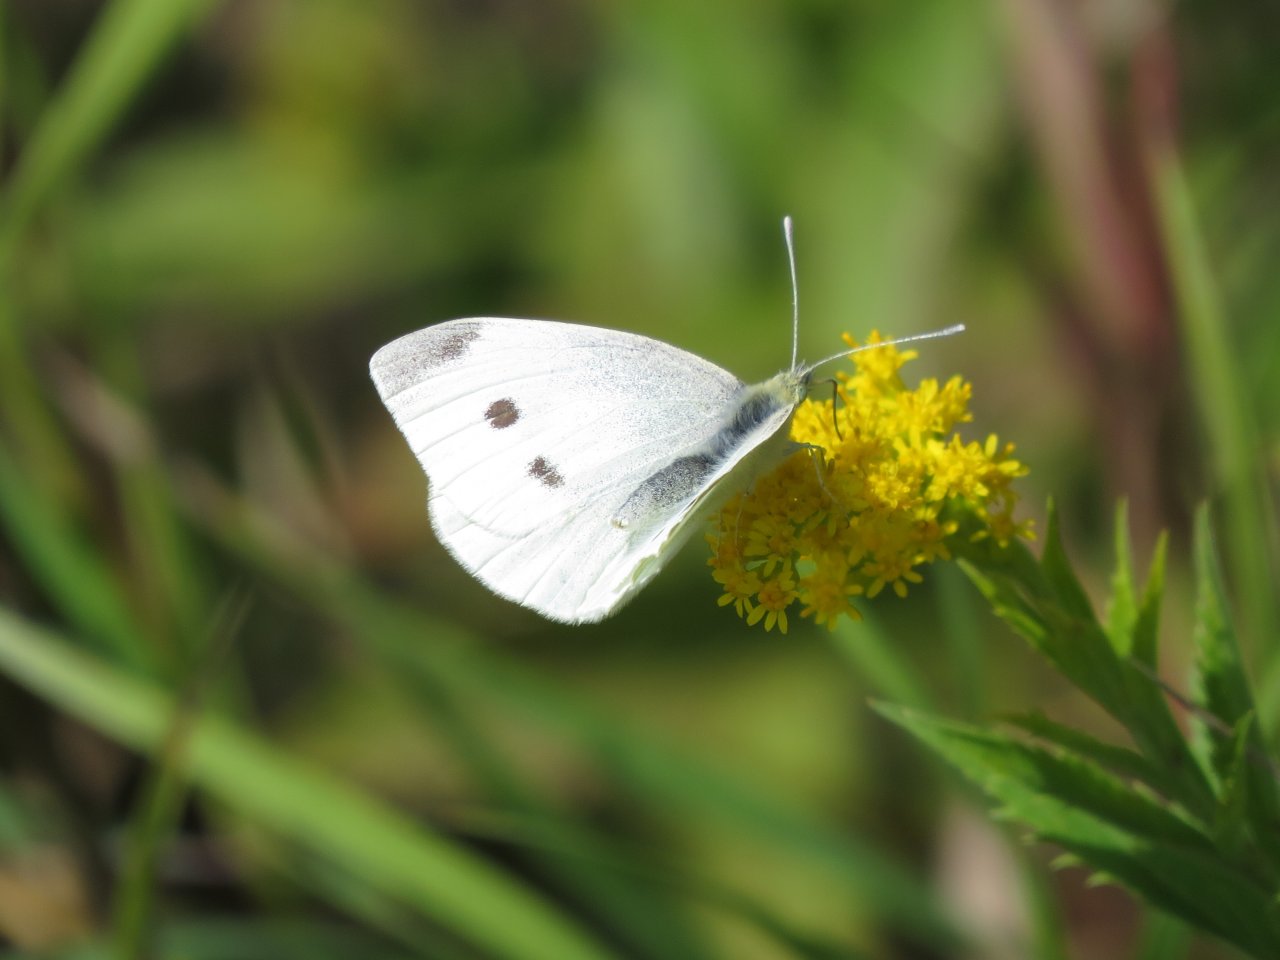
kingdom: Animalia
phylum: Arthropoda
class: Insecta
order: Lepidoptera
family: Pieridae
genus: Pieris
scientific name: Pieris rapae
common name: Cabbage White
